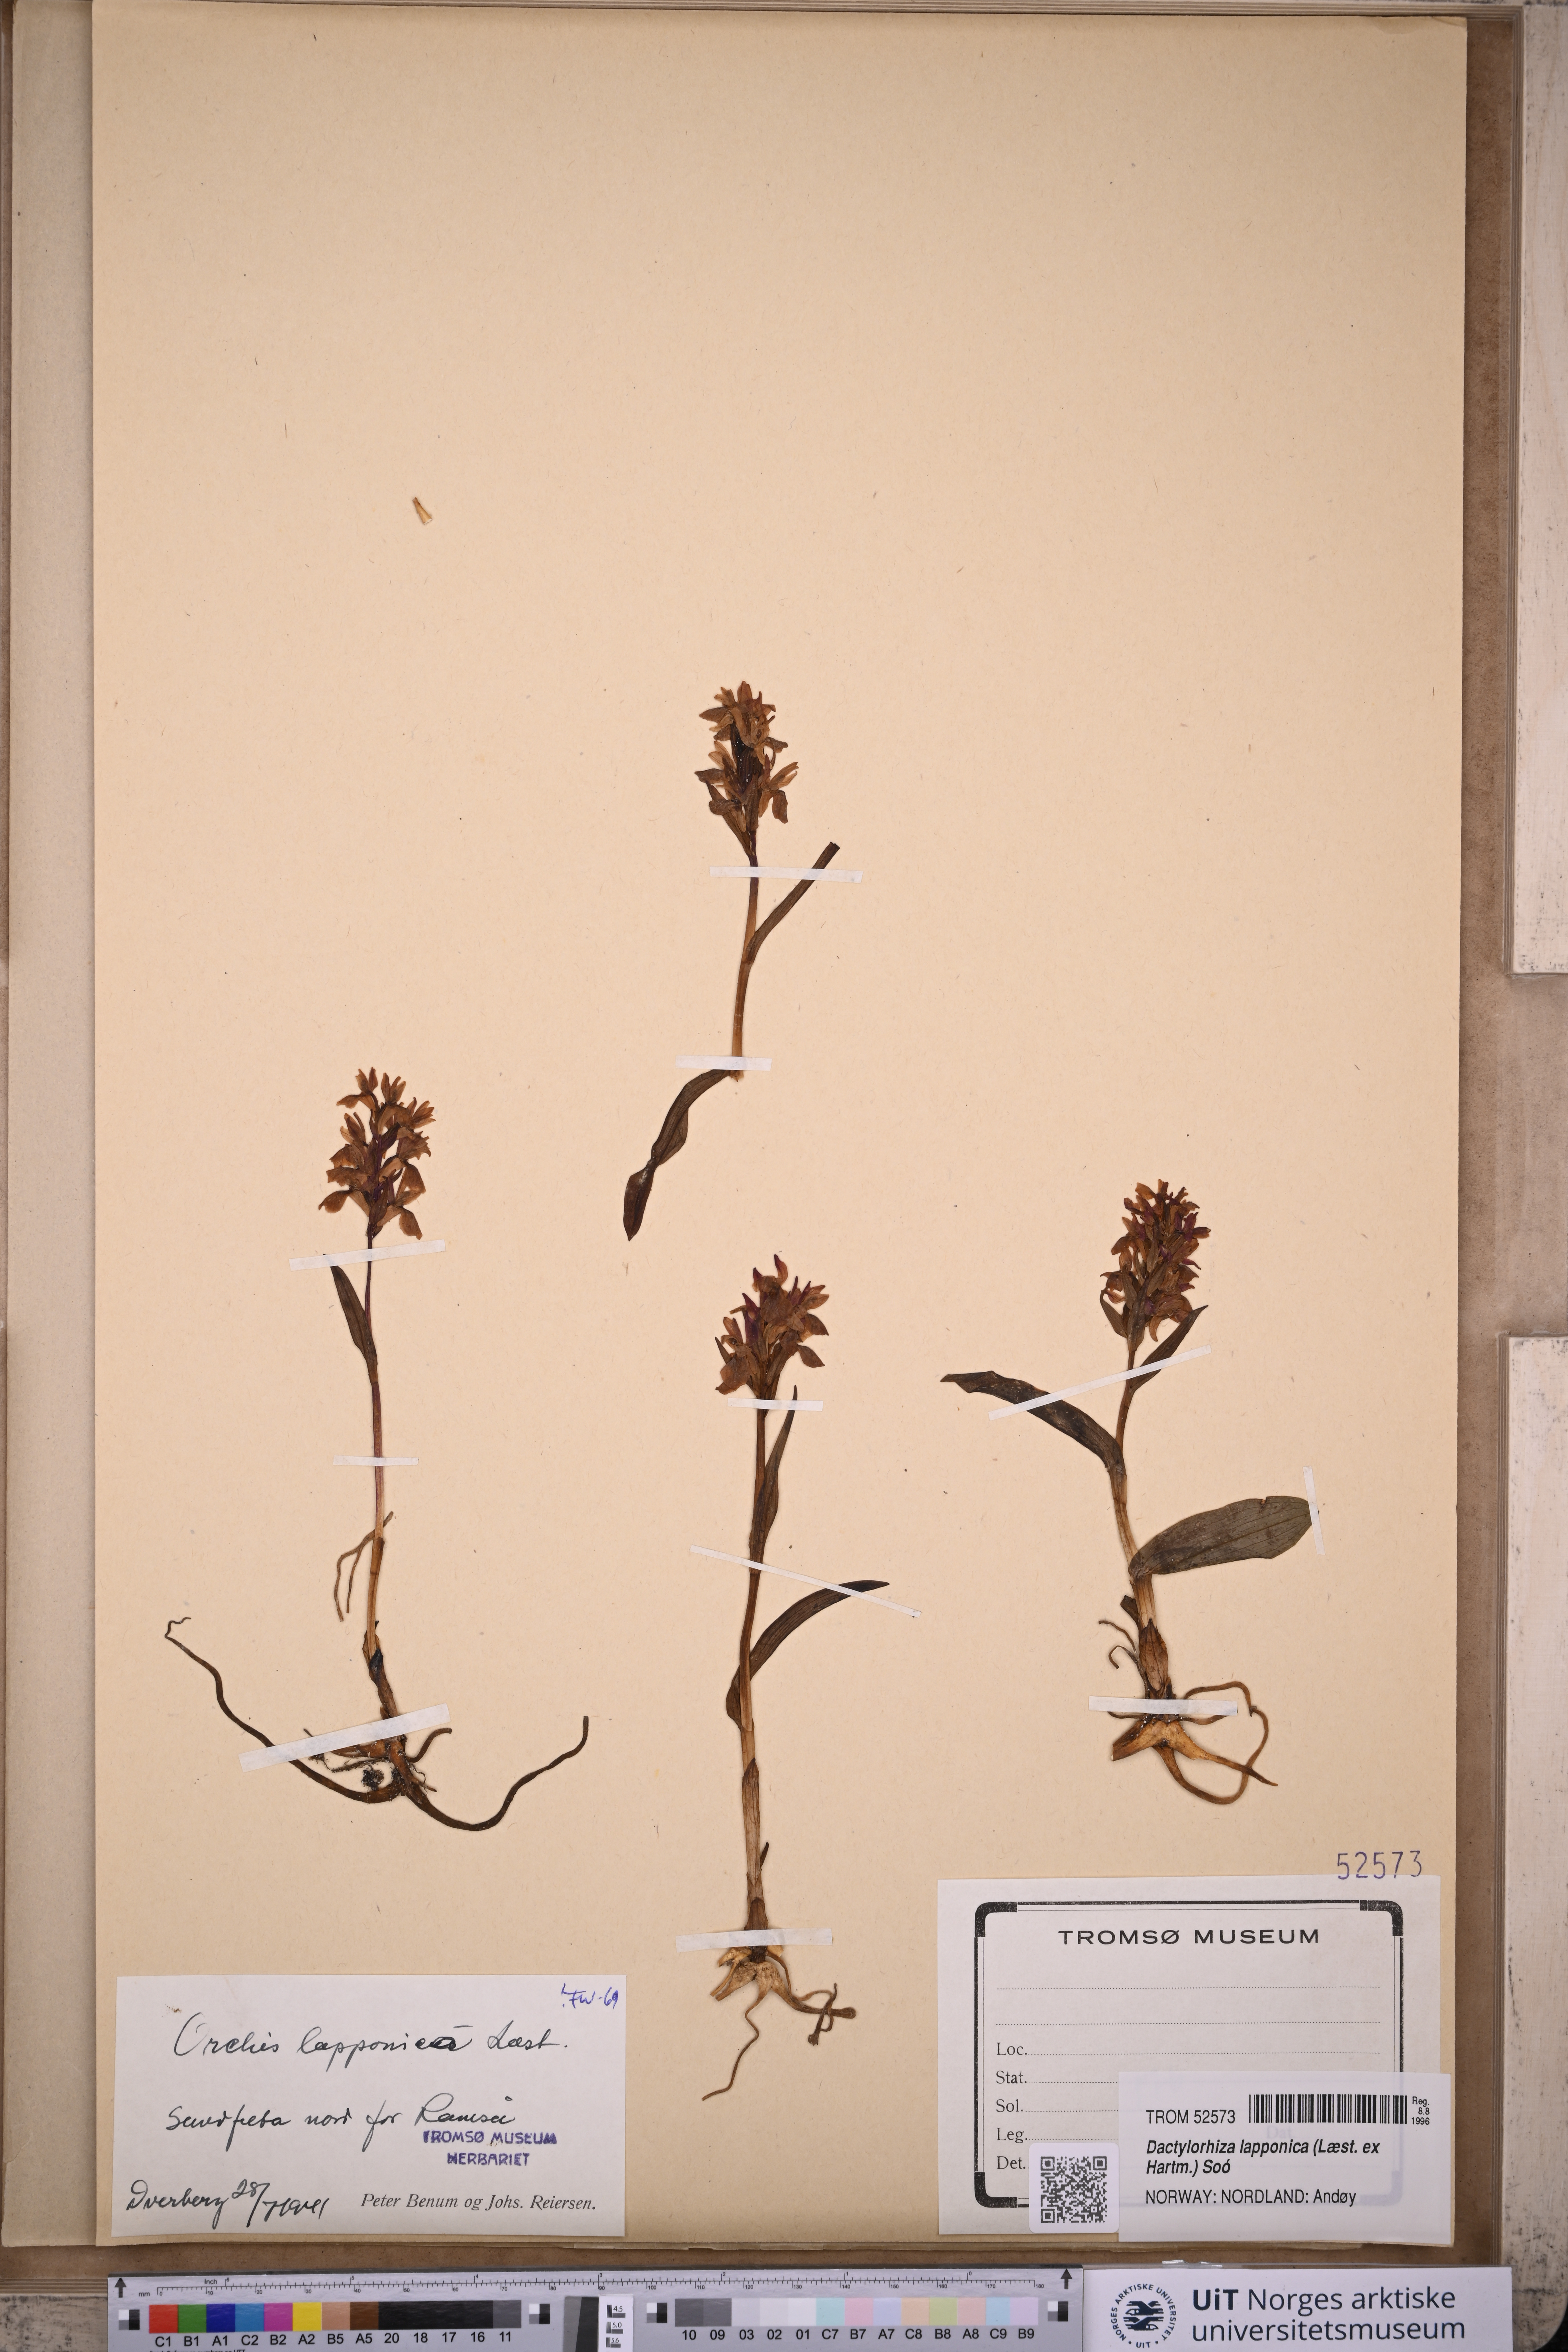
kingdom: Plantae
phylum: Tracheophyta
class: Liliopsida
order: Asparagales
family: Orchidaceae
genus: Dactylorhiza
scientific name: Dactylorhiza majalis
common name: Marsh orchid
